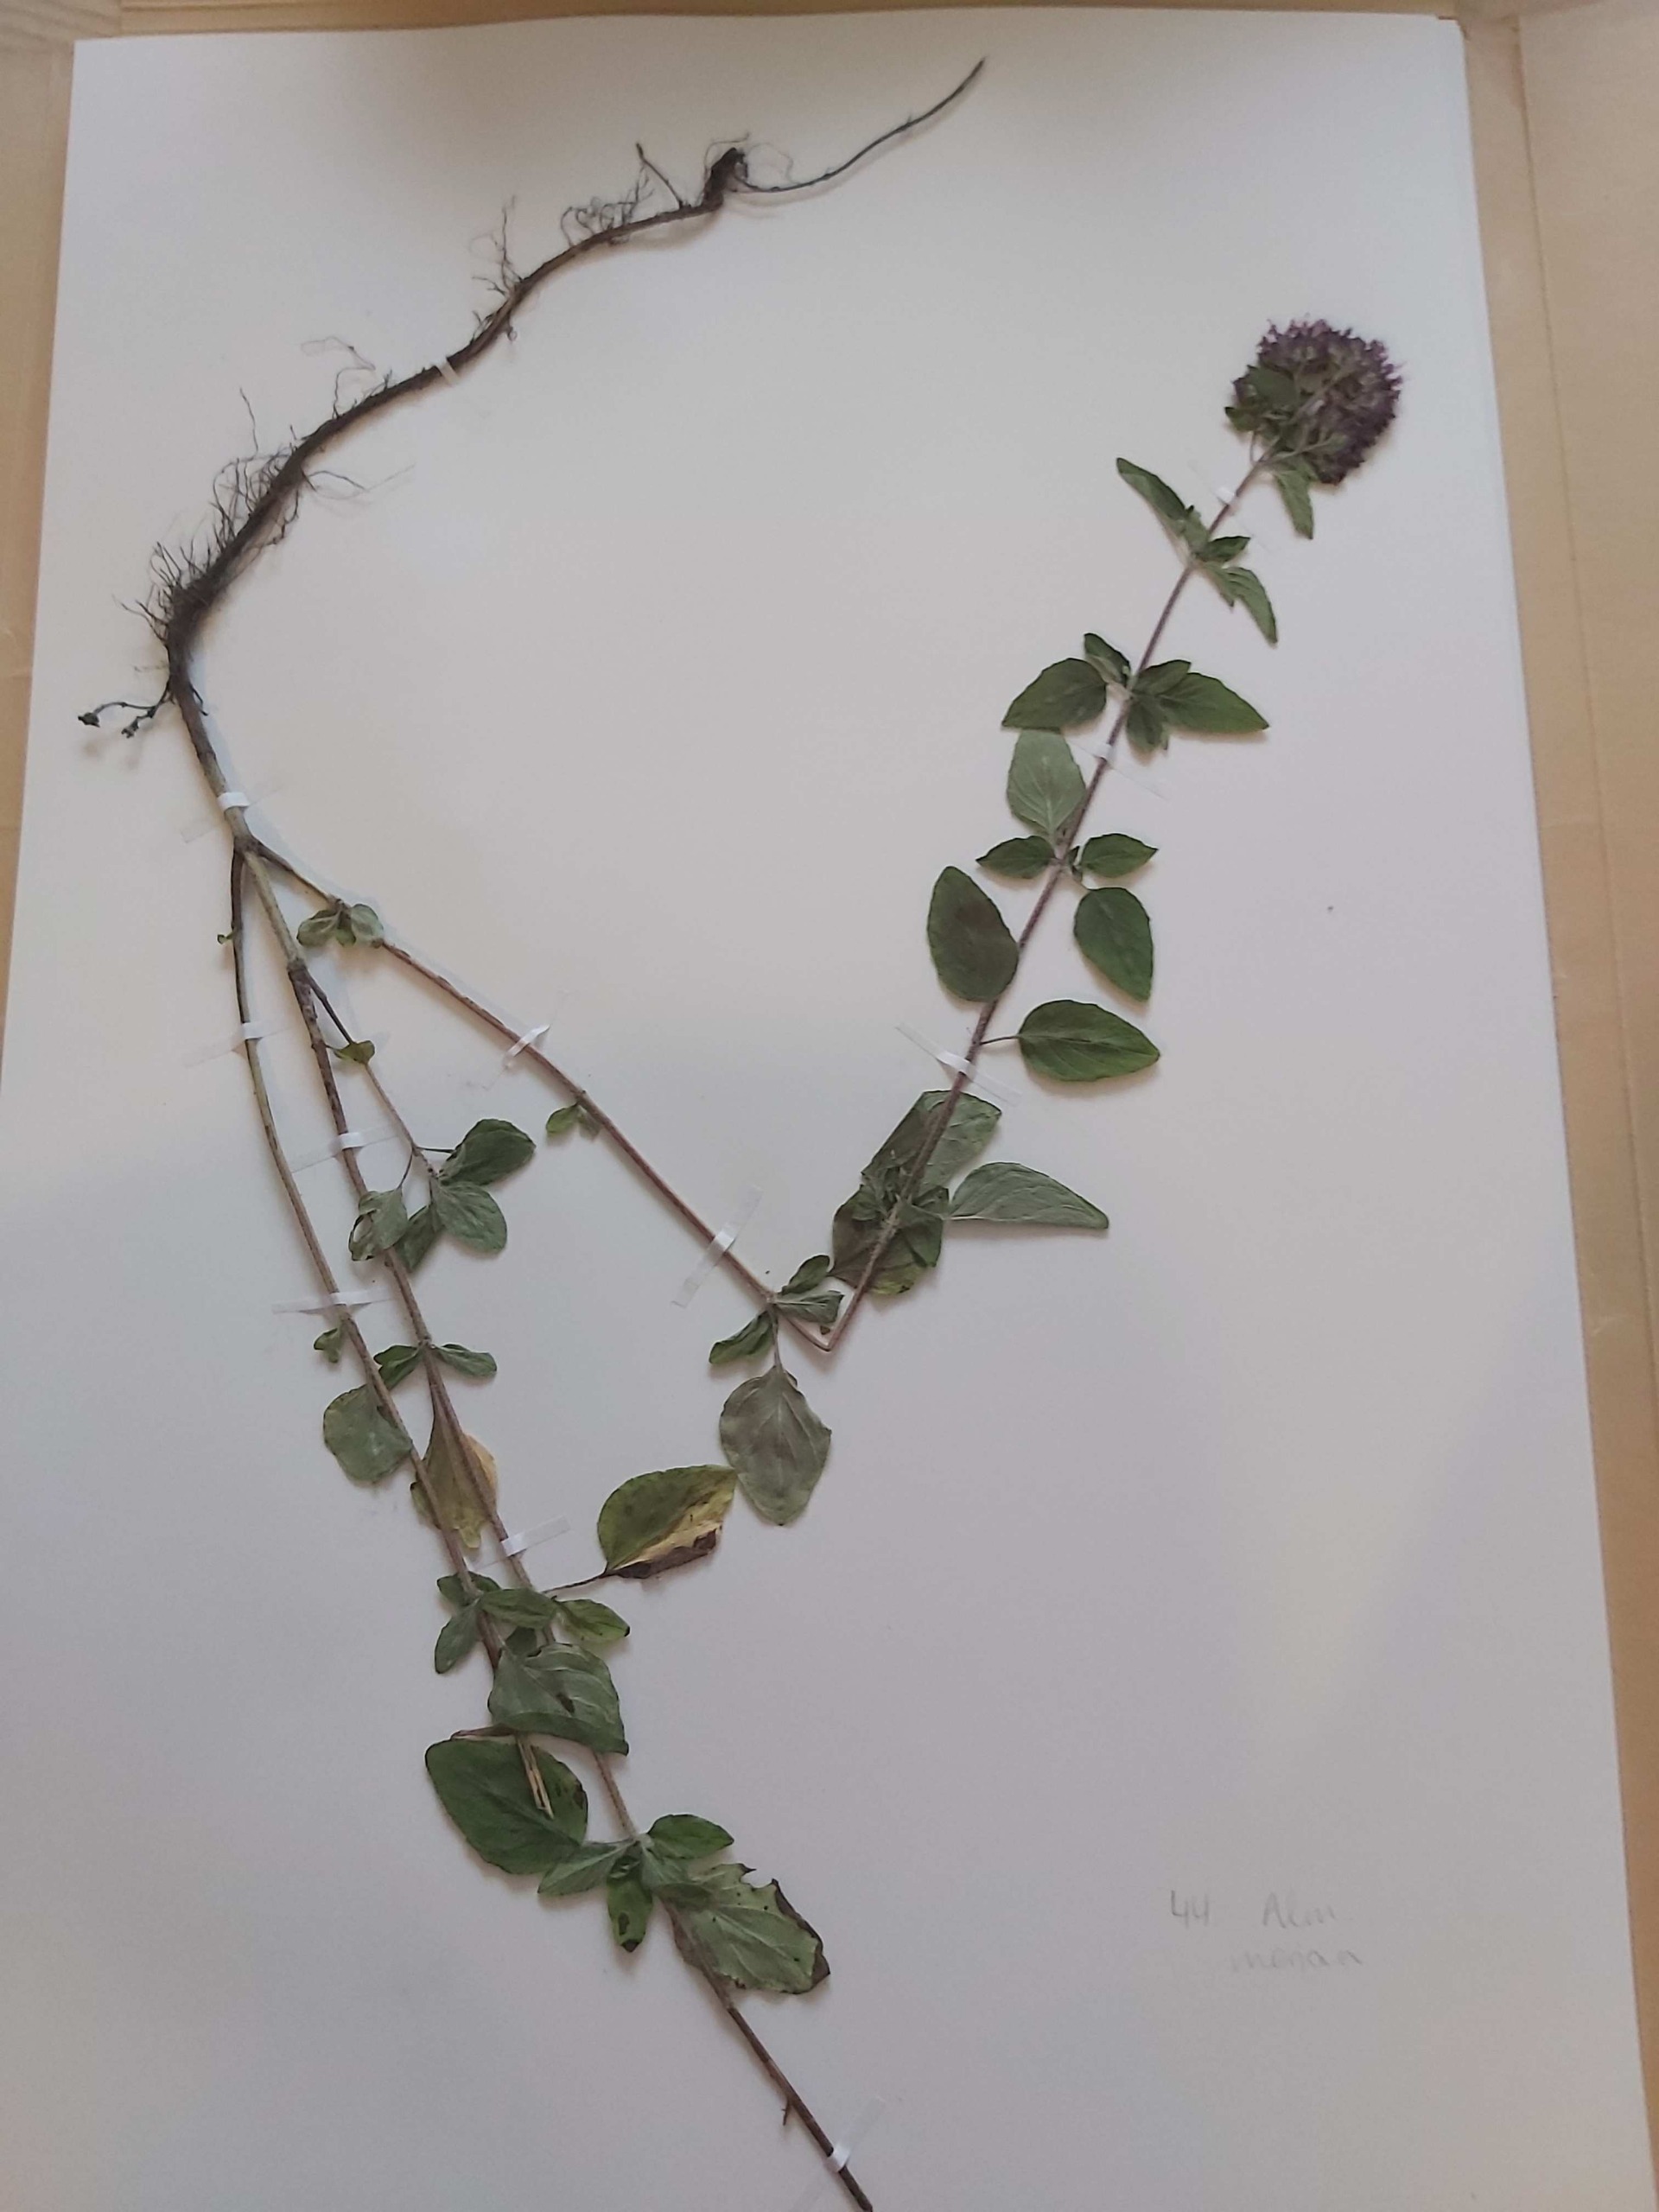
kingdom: Plantae
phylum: Tracheophyta
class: Magnoliopsida
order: Lamiales
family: Lamiaceae
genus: Origanum
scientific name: Origanum vulgare
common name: Merian
